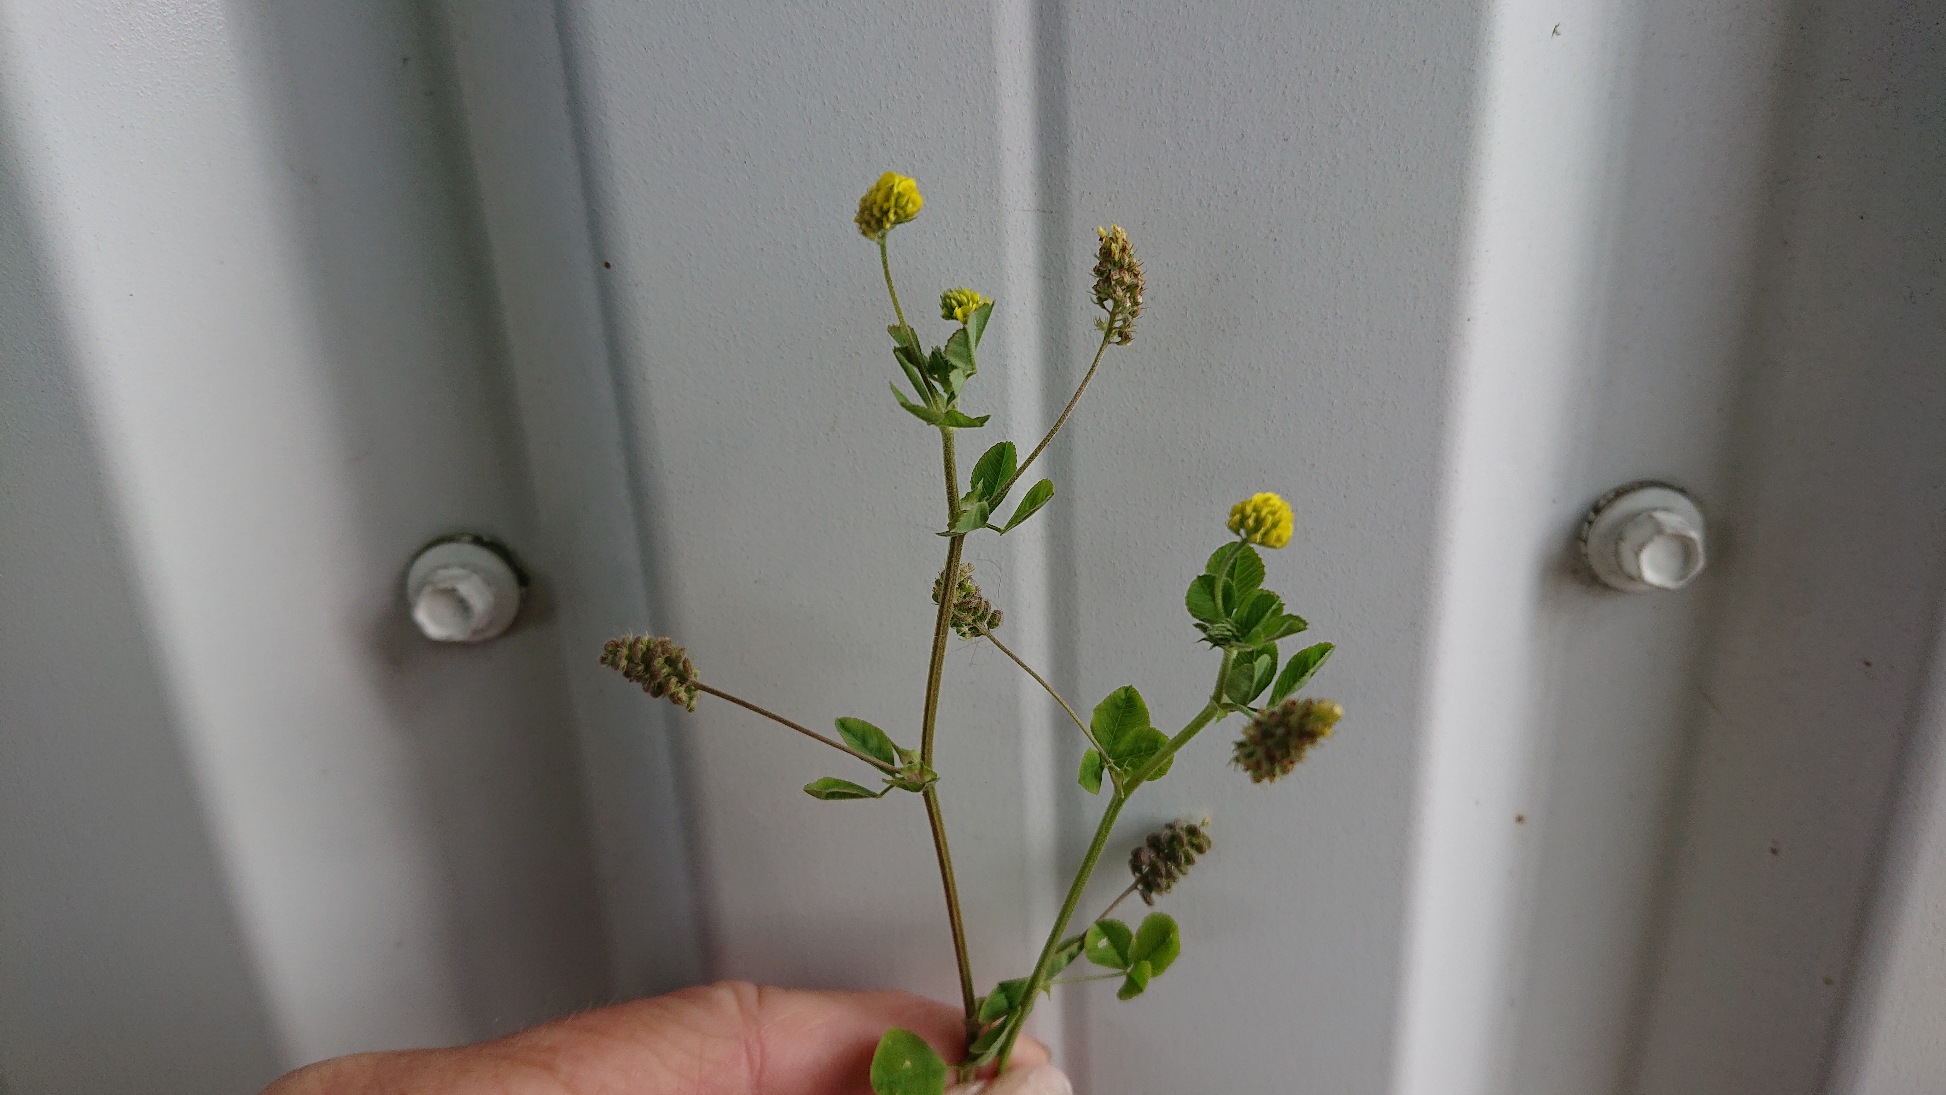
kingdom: Plantae
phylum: Tracheophyta
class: Magnoliopsida
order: Fabales
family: Fabaceae
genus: Medicago
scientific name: Medicago lupulina
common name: Humle-sneglebælg
